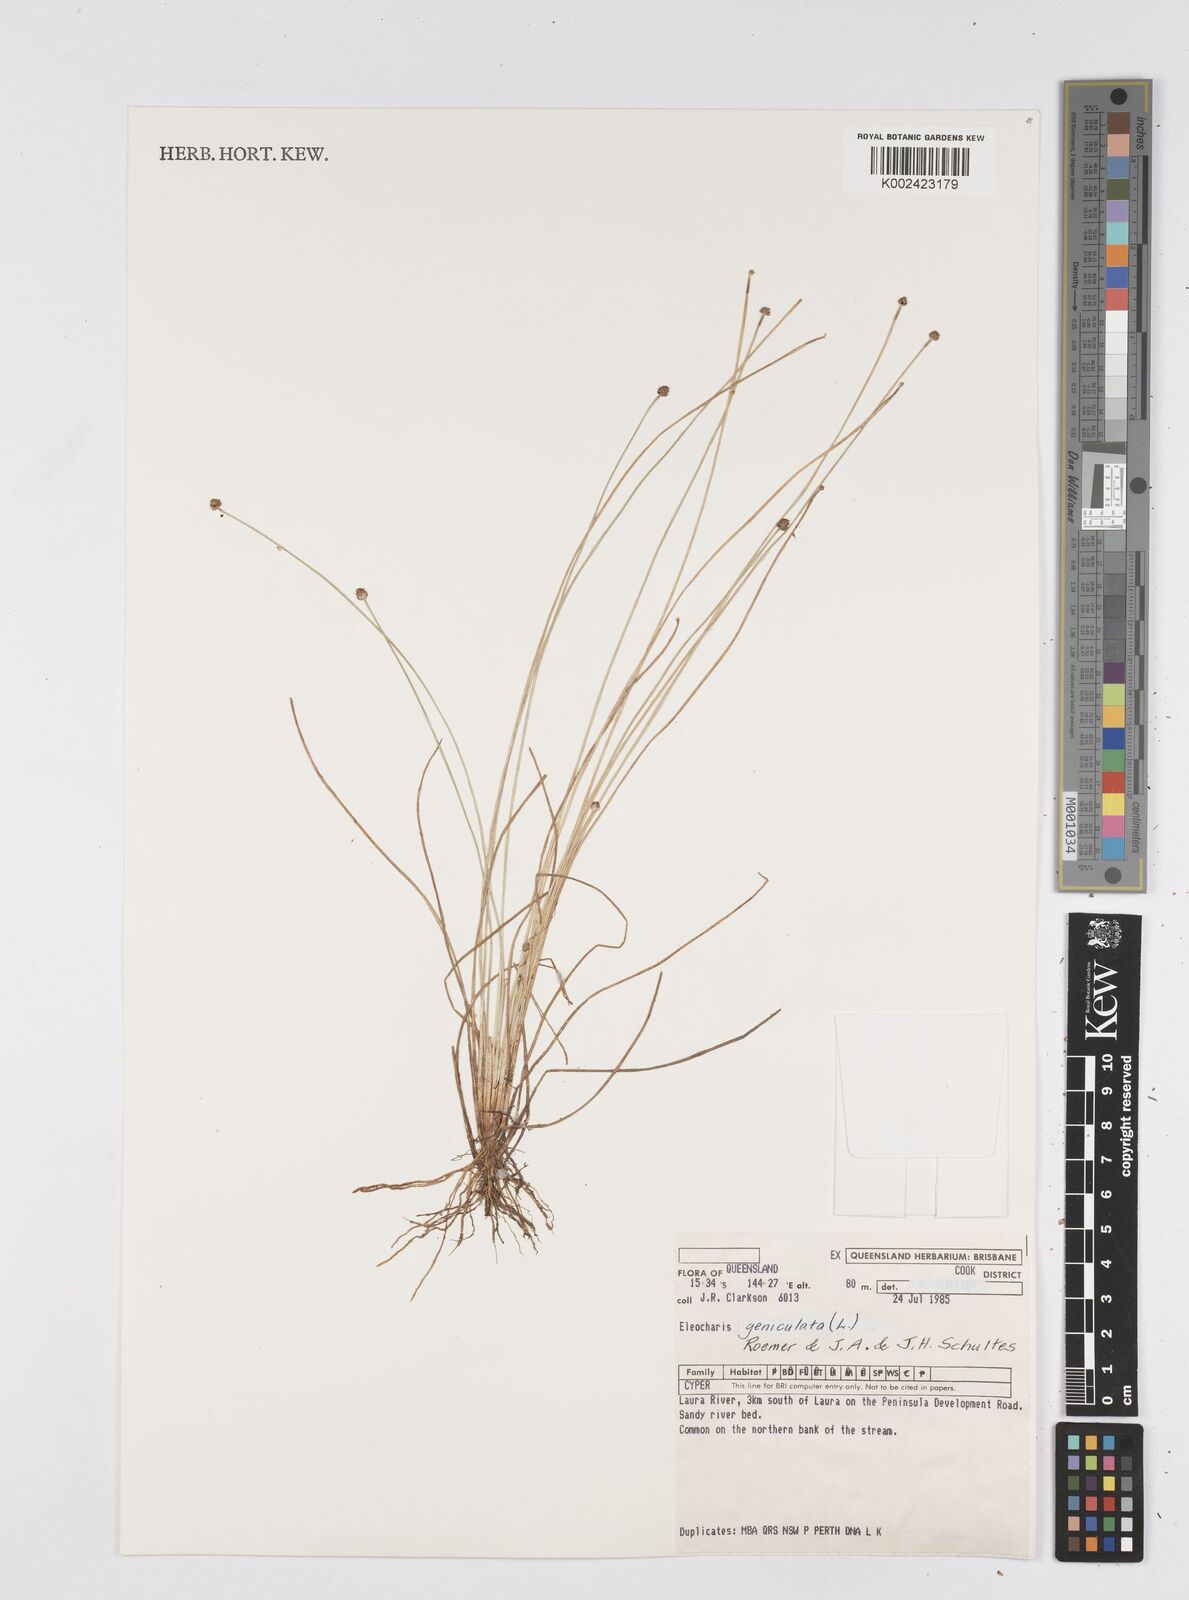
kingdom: Plantae
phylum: Tracheophyta
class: Liliopsida
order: Poales
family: Cyperaceae
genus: Eleocharis
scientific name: Eleocharis geniculata
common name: Canada spikesedge
